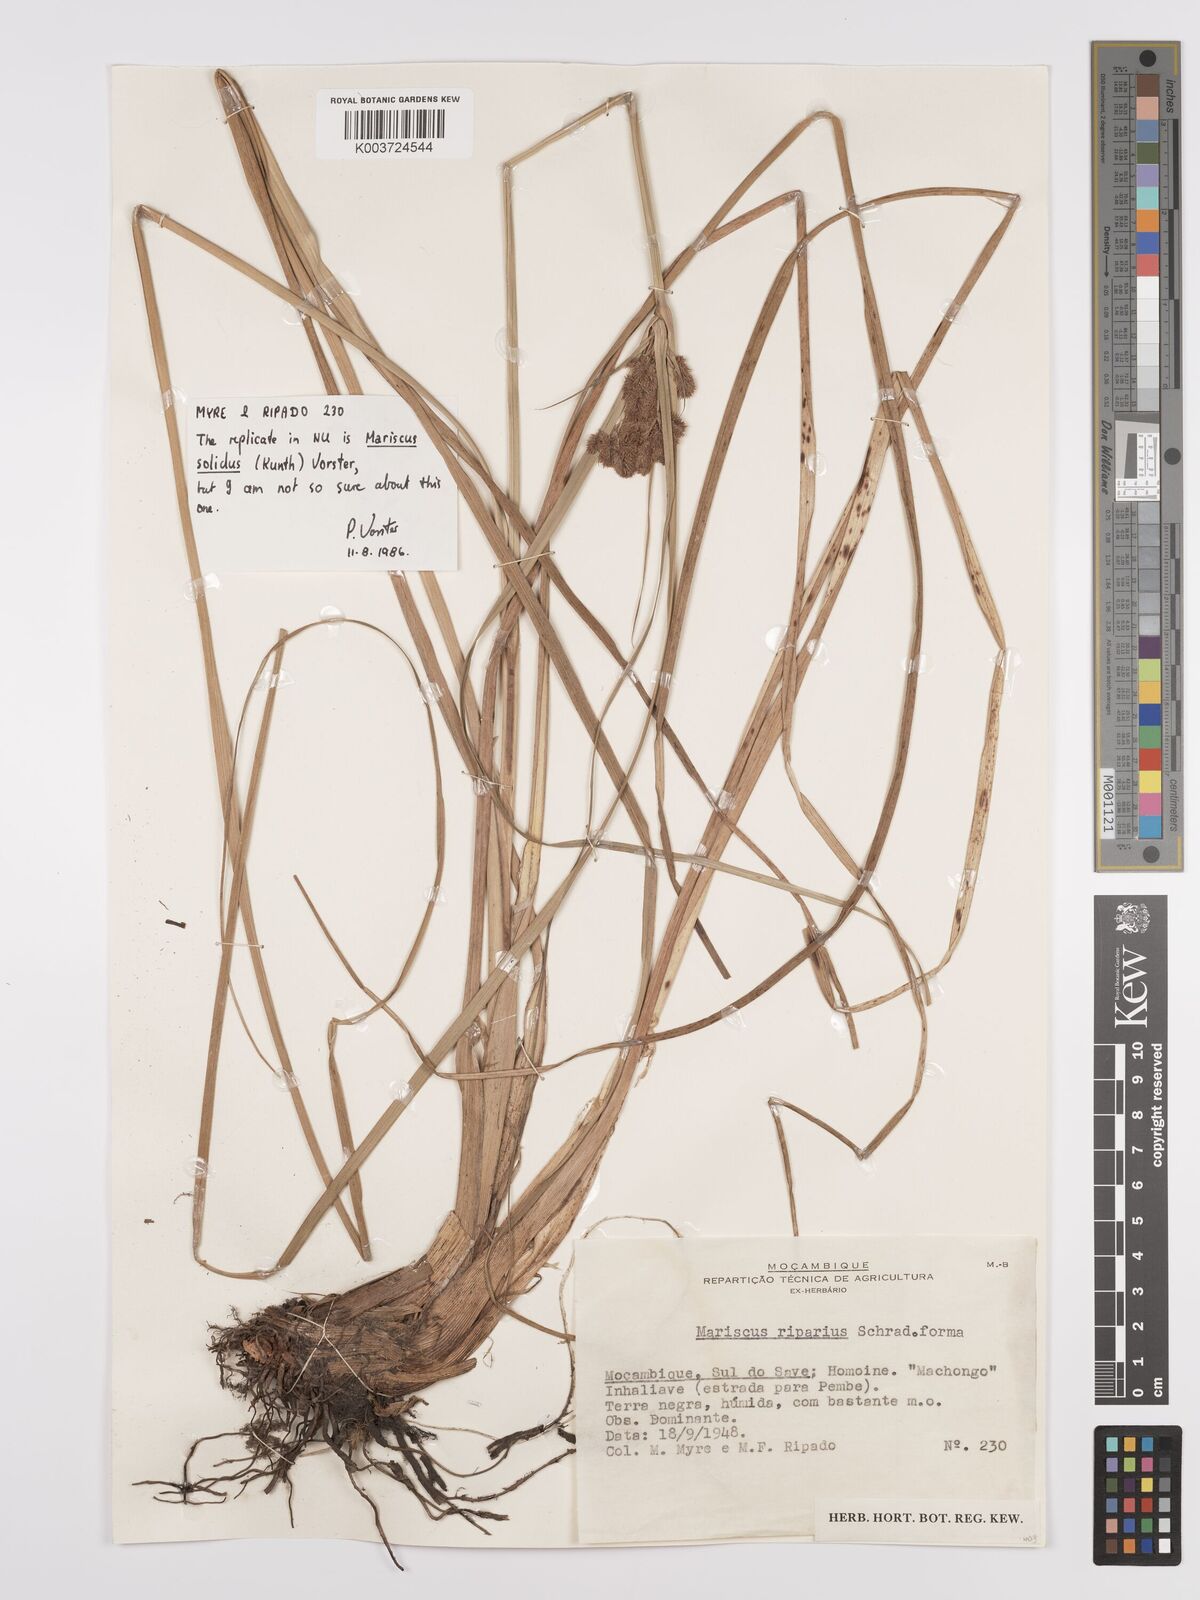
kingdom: Plantae
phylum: Tracheophyta
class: Liliopsida
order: Poales
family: Cyperaceae
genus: Cyperus
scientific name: Cyperus haspan
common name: Haspan flatsedge
